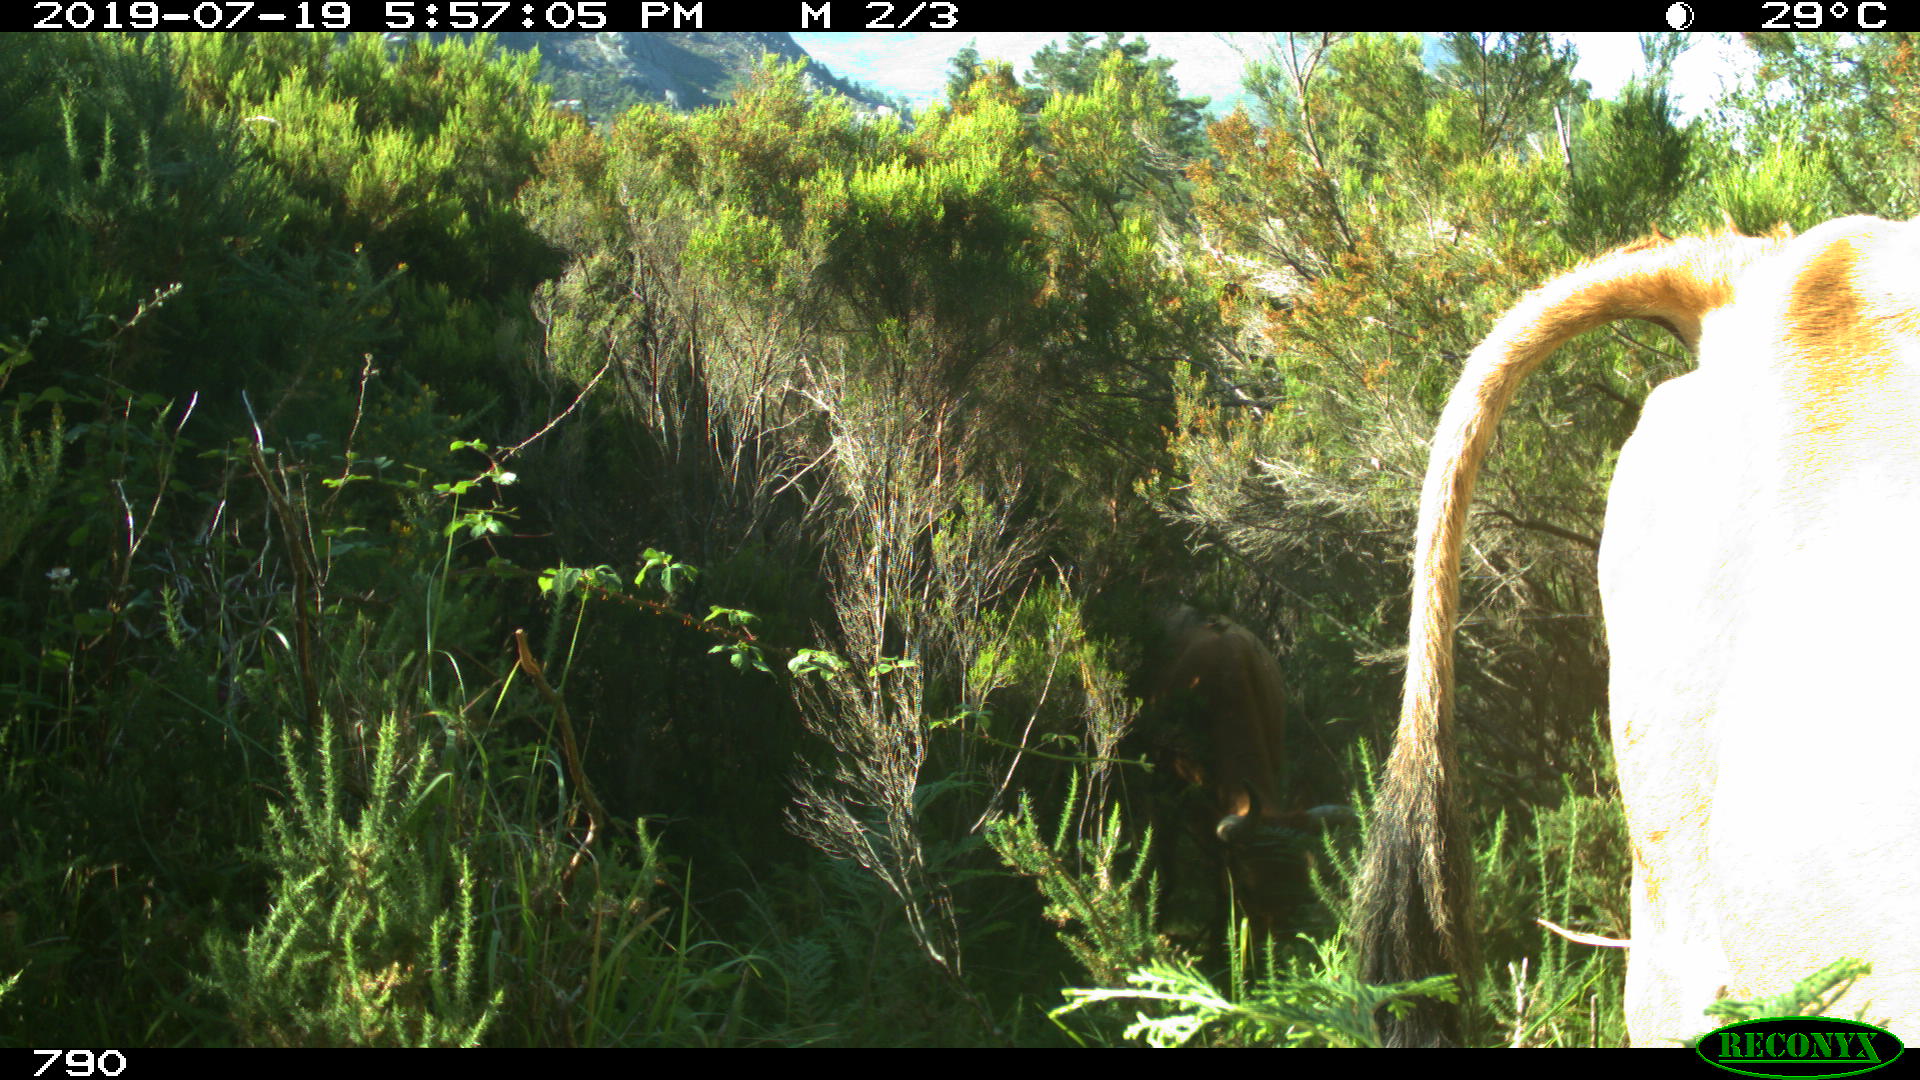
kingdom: Animalia
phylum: Chordata
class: Mammalia
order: Artiodactyla
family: Bovidae
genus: Bos
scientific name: Bos taurus
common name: Domesticated cattle
